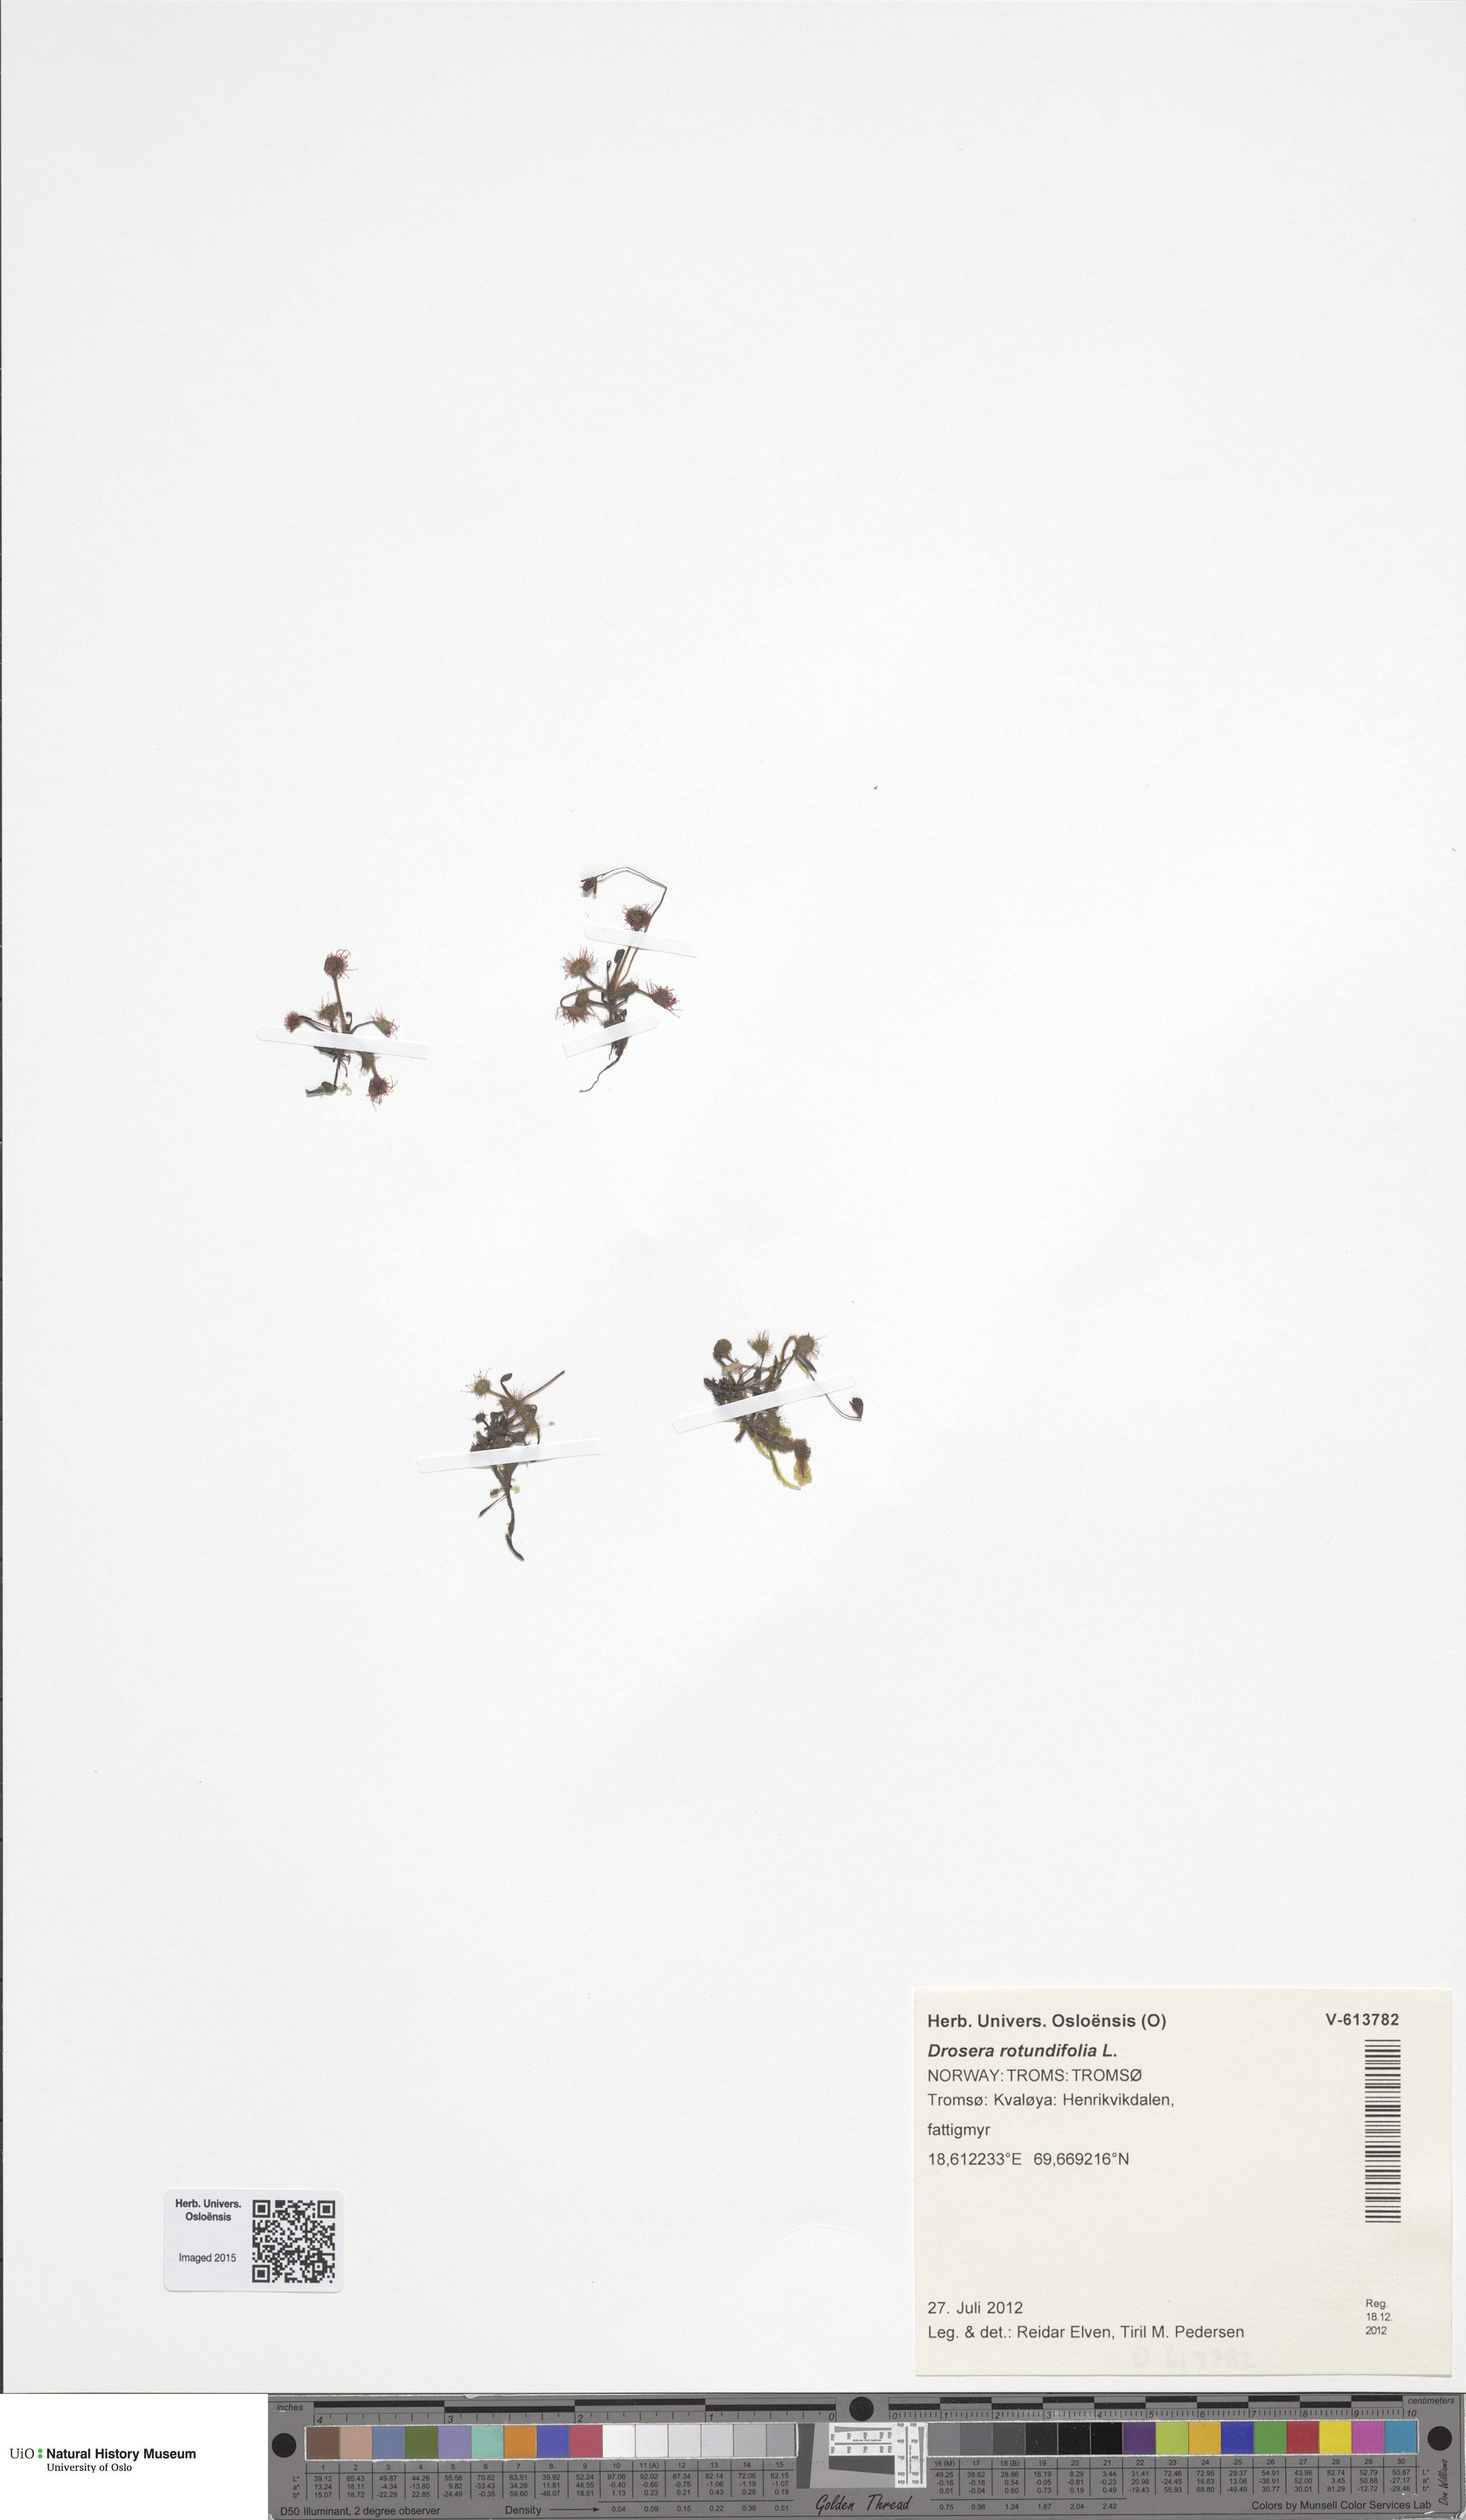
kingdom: Plantae
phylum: Tracheophyta
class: Magnoliopsida
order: Caryophyllales
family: Droseraceae
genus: Drosera
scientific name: Drosera rotundifolia
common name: Round-leaved sundew
